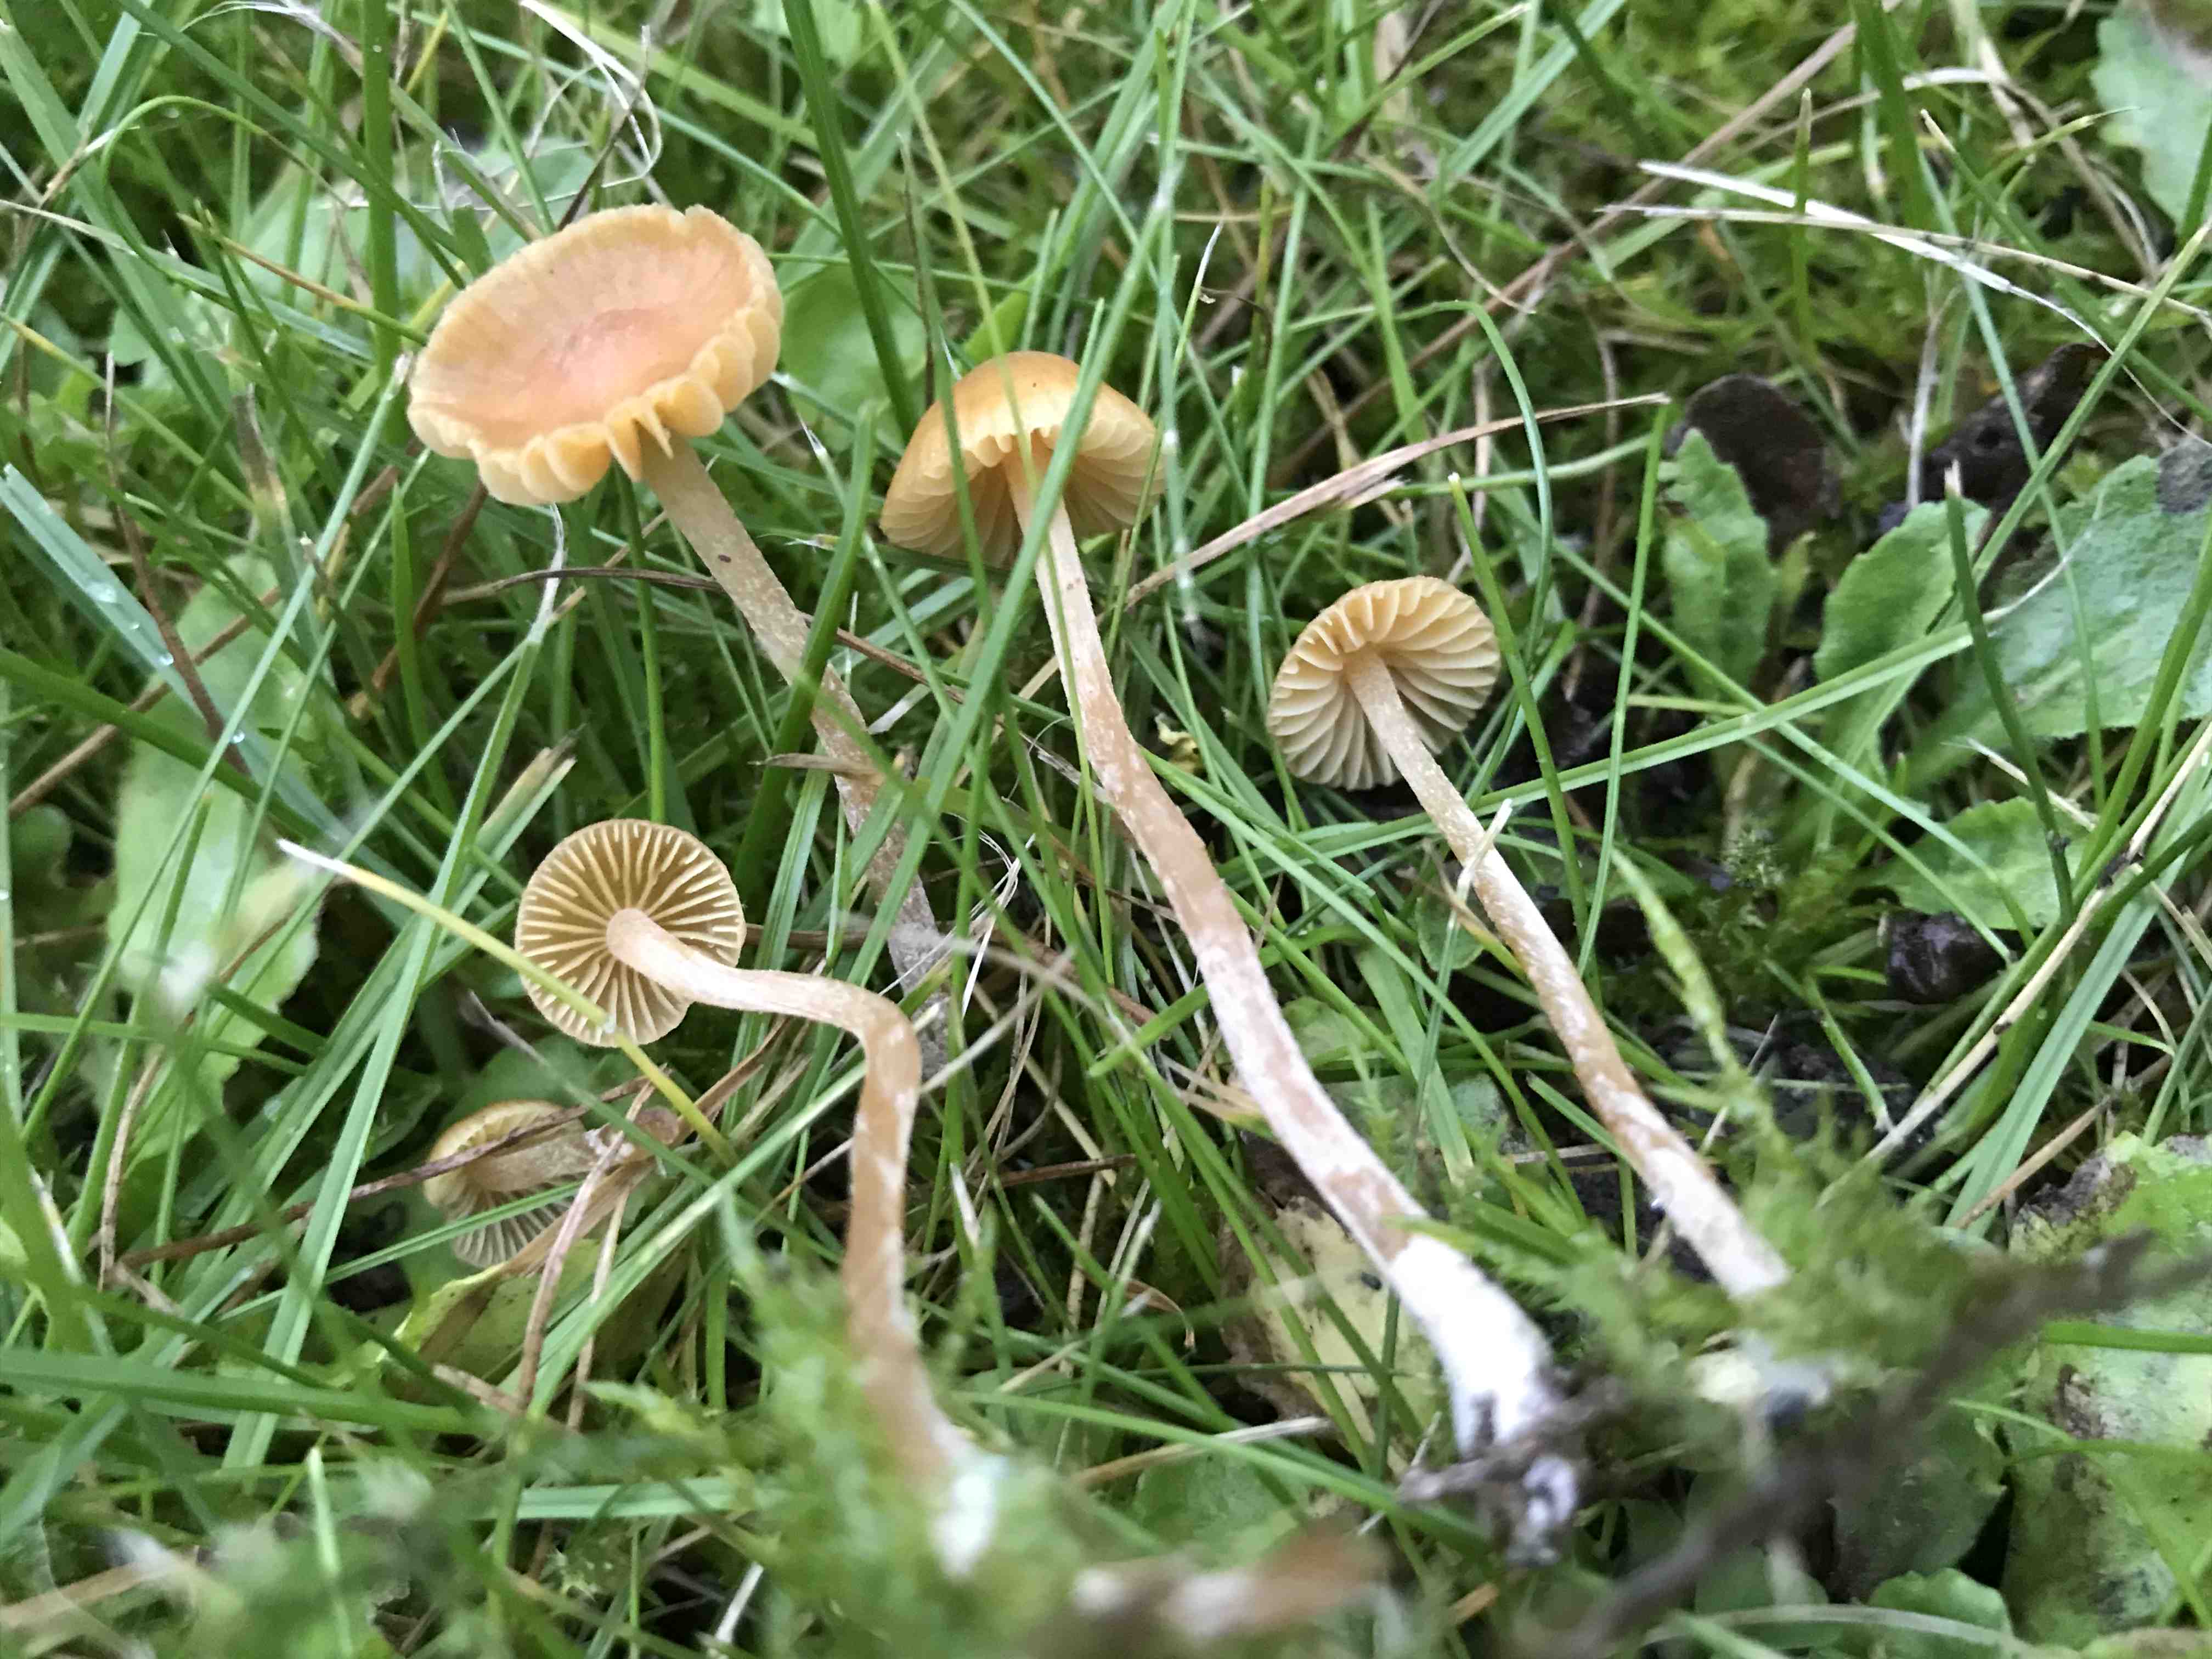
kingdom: Fungi
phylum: Basidiomycota
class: Agaricomycetes
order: Agaricales
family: Hymenogastraceae
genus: Galerina
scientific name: Galerina
